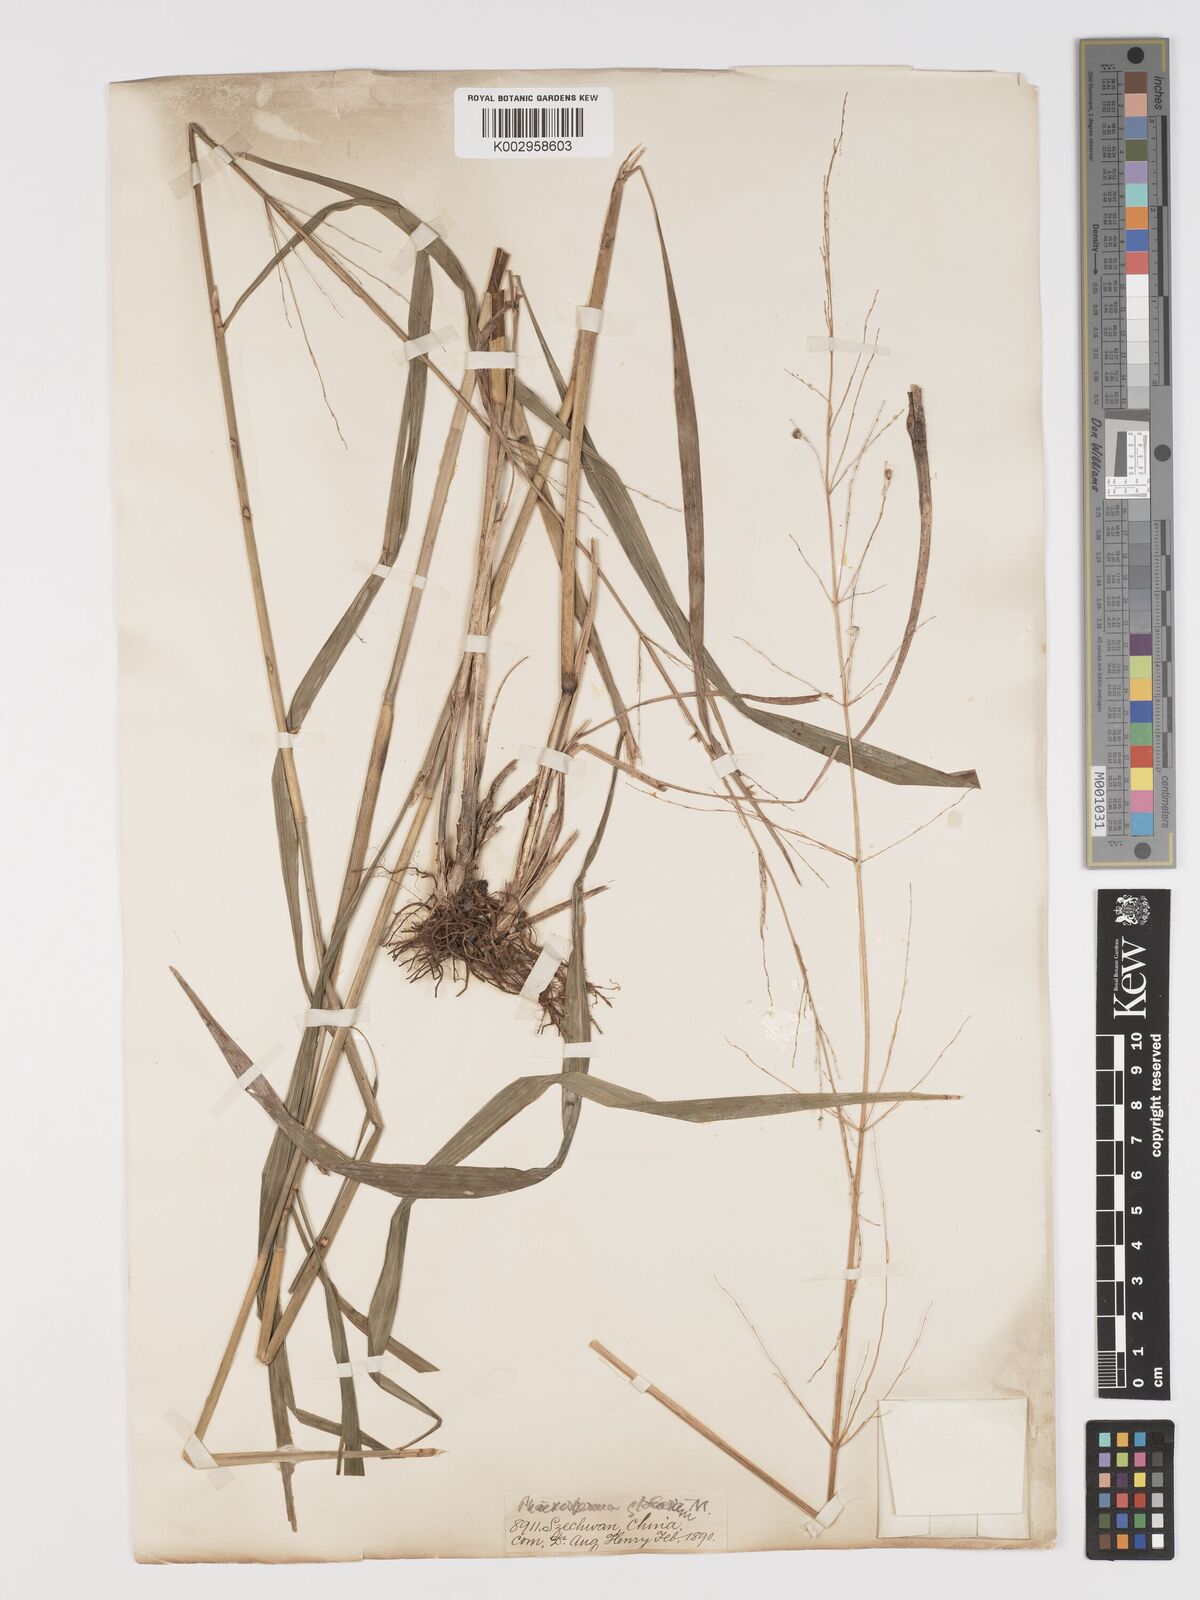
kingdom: Plantae
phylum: Tracheophyta
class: Liliopsida
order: Poales
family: Poaceae
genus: Phaenosperma
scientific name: Phaenosperma globosum
